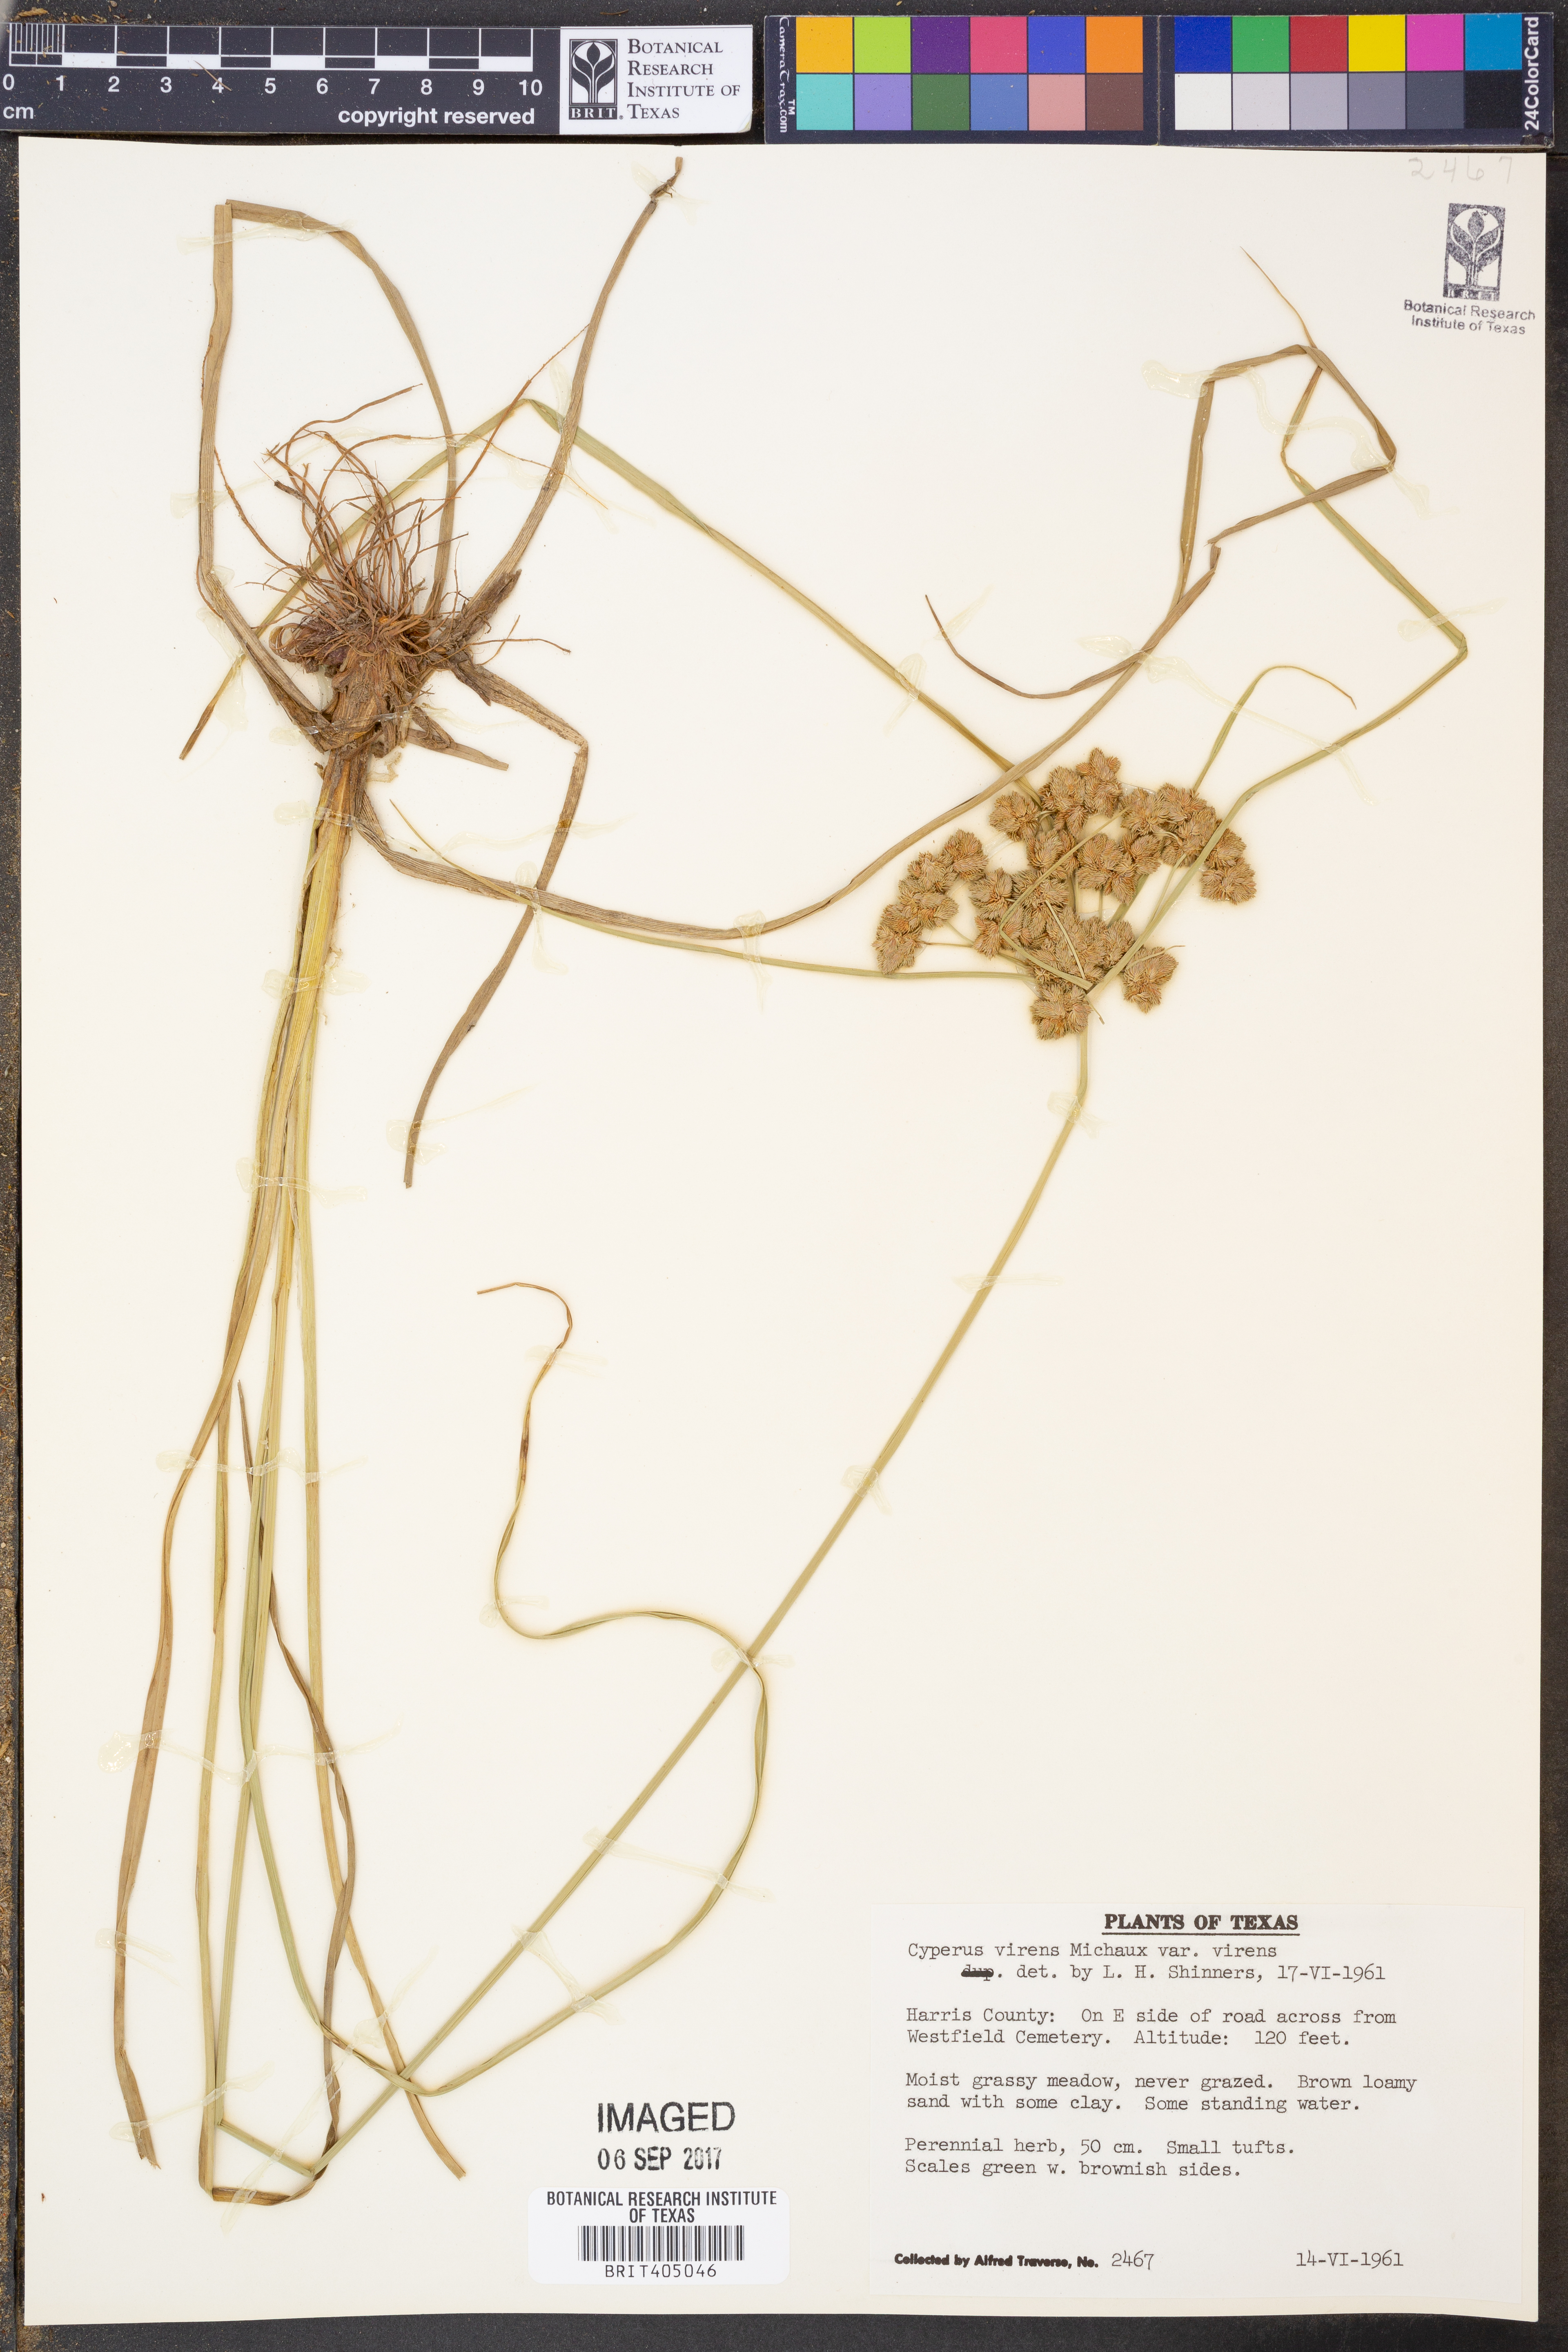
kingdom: Plantae
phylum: Tracheophyta
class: Liliopsida
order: Poales
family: Cyperaceae
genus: Cyperus
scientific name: Cyperus virens
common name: Green flatsedge
